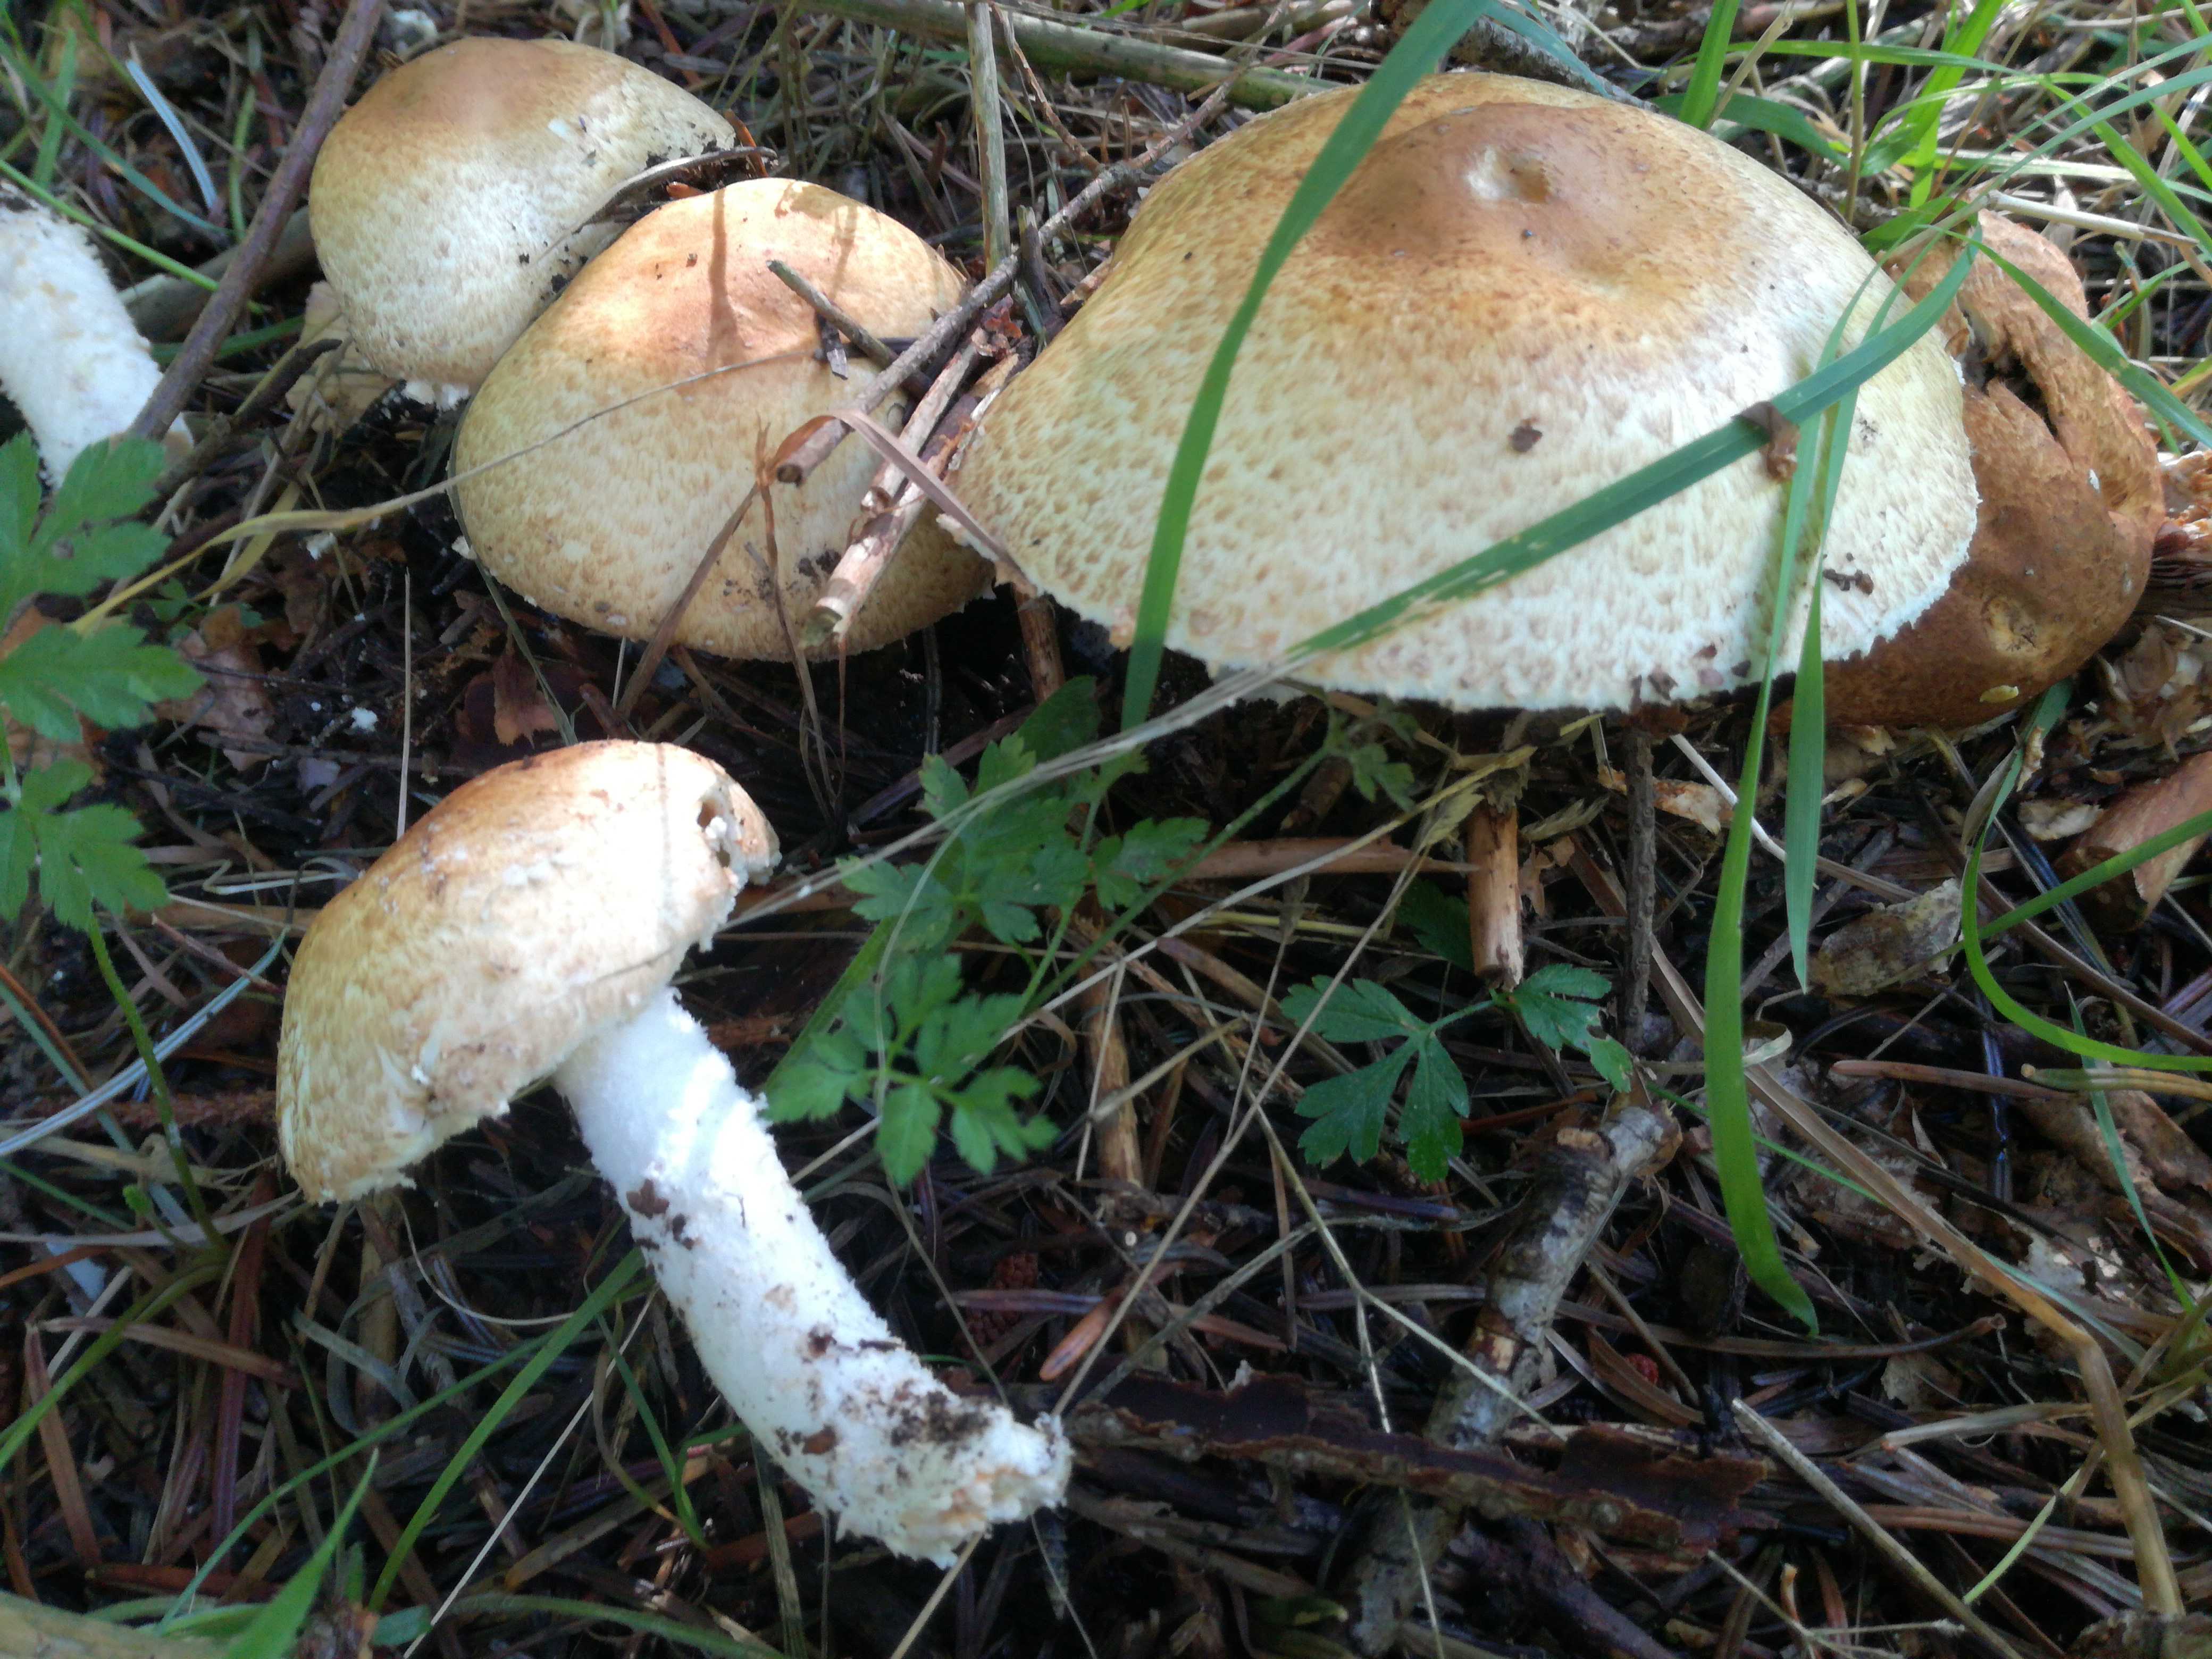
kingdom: Fungi
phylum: Basidiomycota
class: Agaricomycetes
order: Agaricales
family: Agaricaceae
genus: Agaricus
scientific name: Agaricus augustus
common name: prægtig champignon
